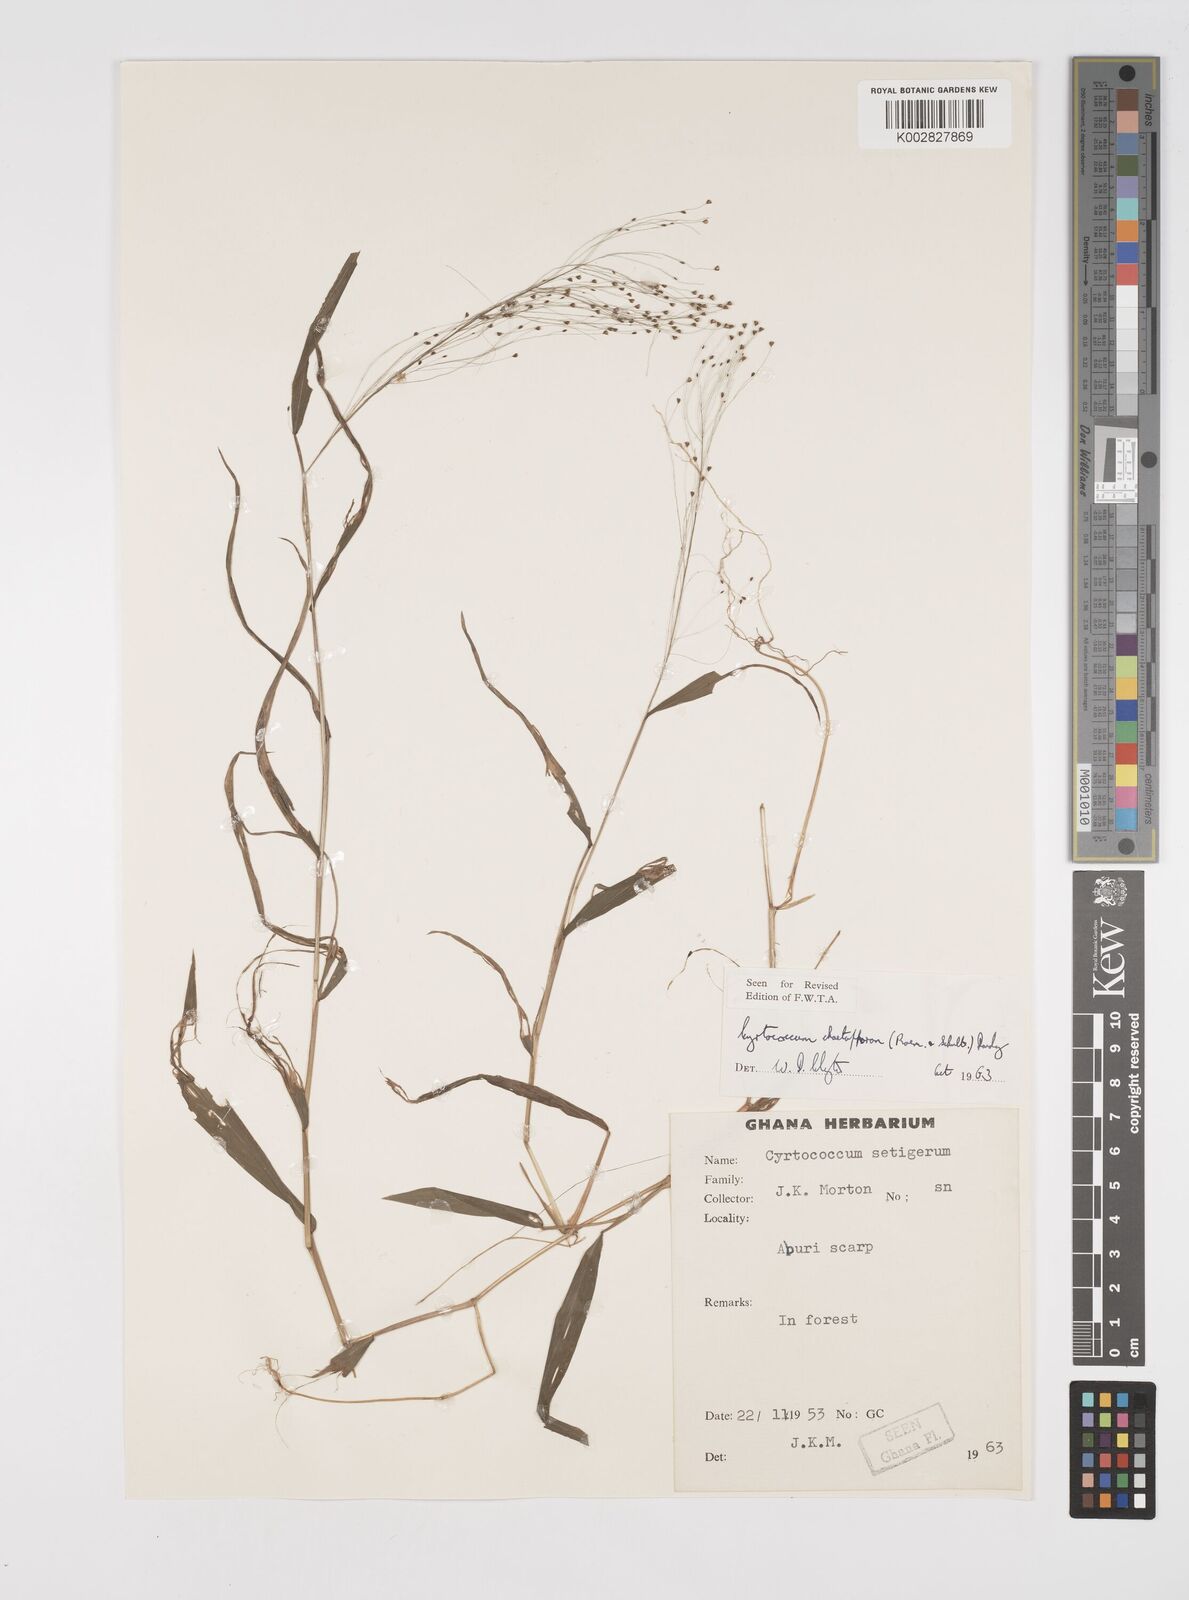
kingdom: Plantae
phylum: Tracheophyta
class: Liliopsida
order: Poales
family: Poaceae
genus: Cyrtococcum
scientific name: Cyrtococcum chaetophoron
